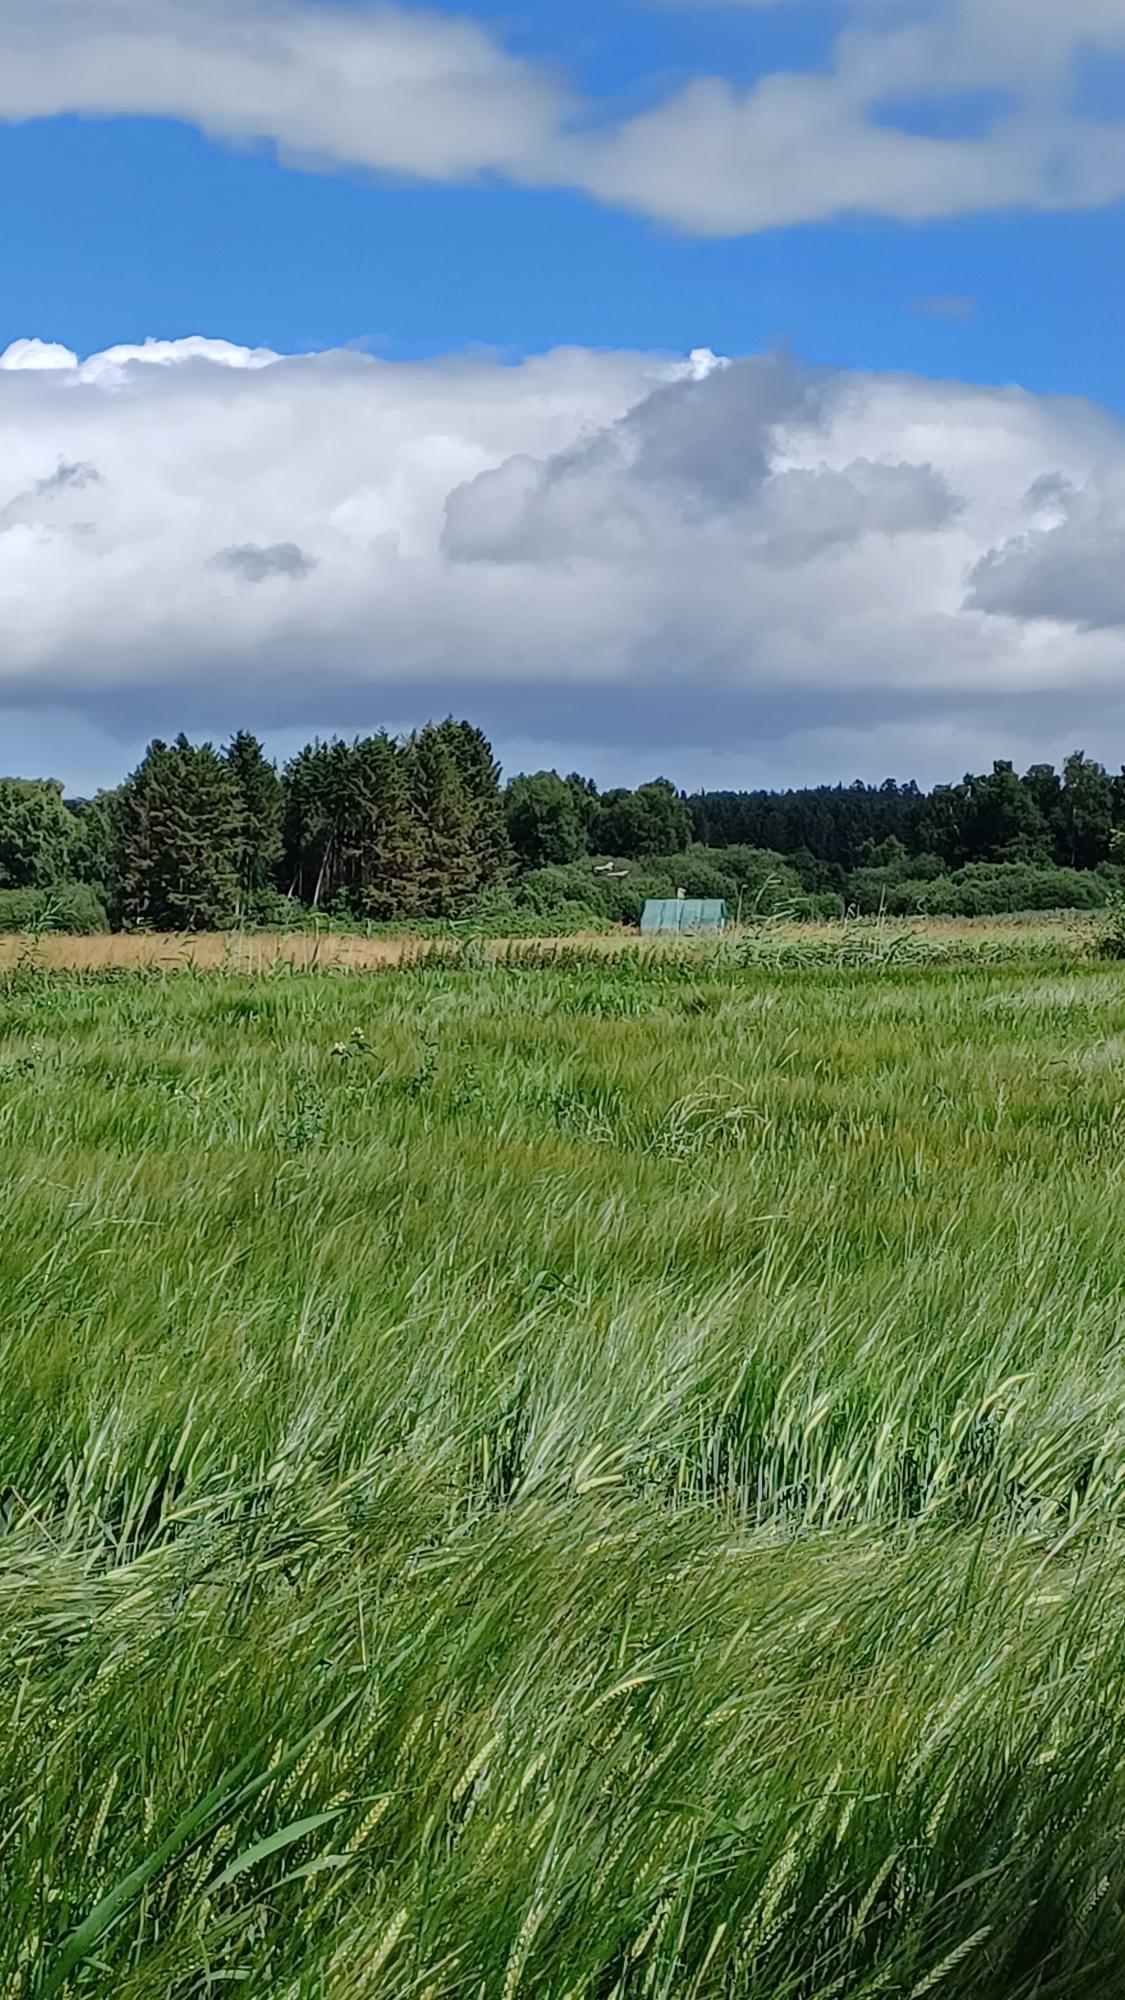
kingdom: Animalia
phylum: Chordata
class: Aves
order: Gruiformes
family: Gruidae
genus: Grus
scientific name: Grus grus
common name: Trane
